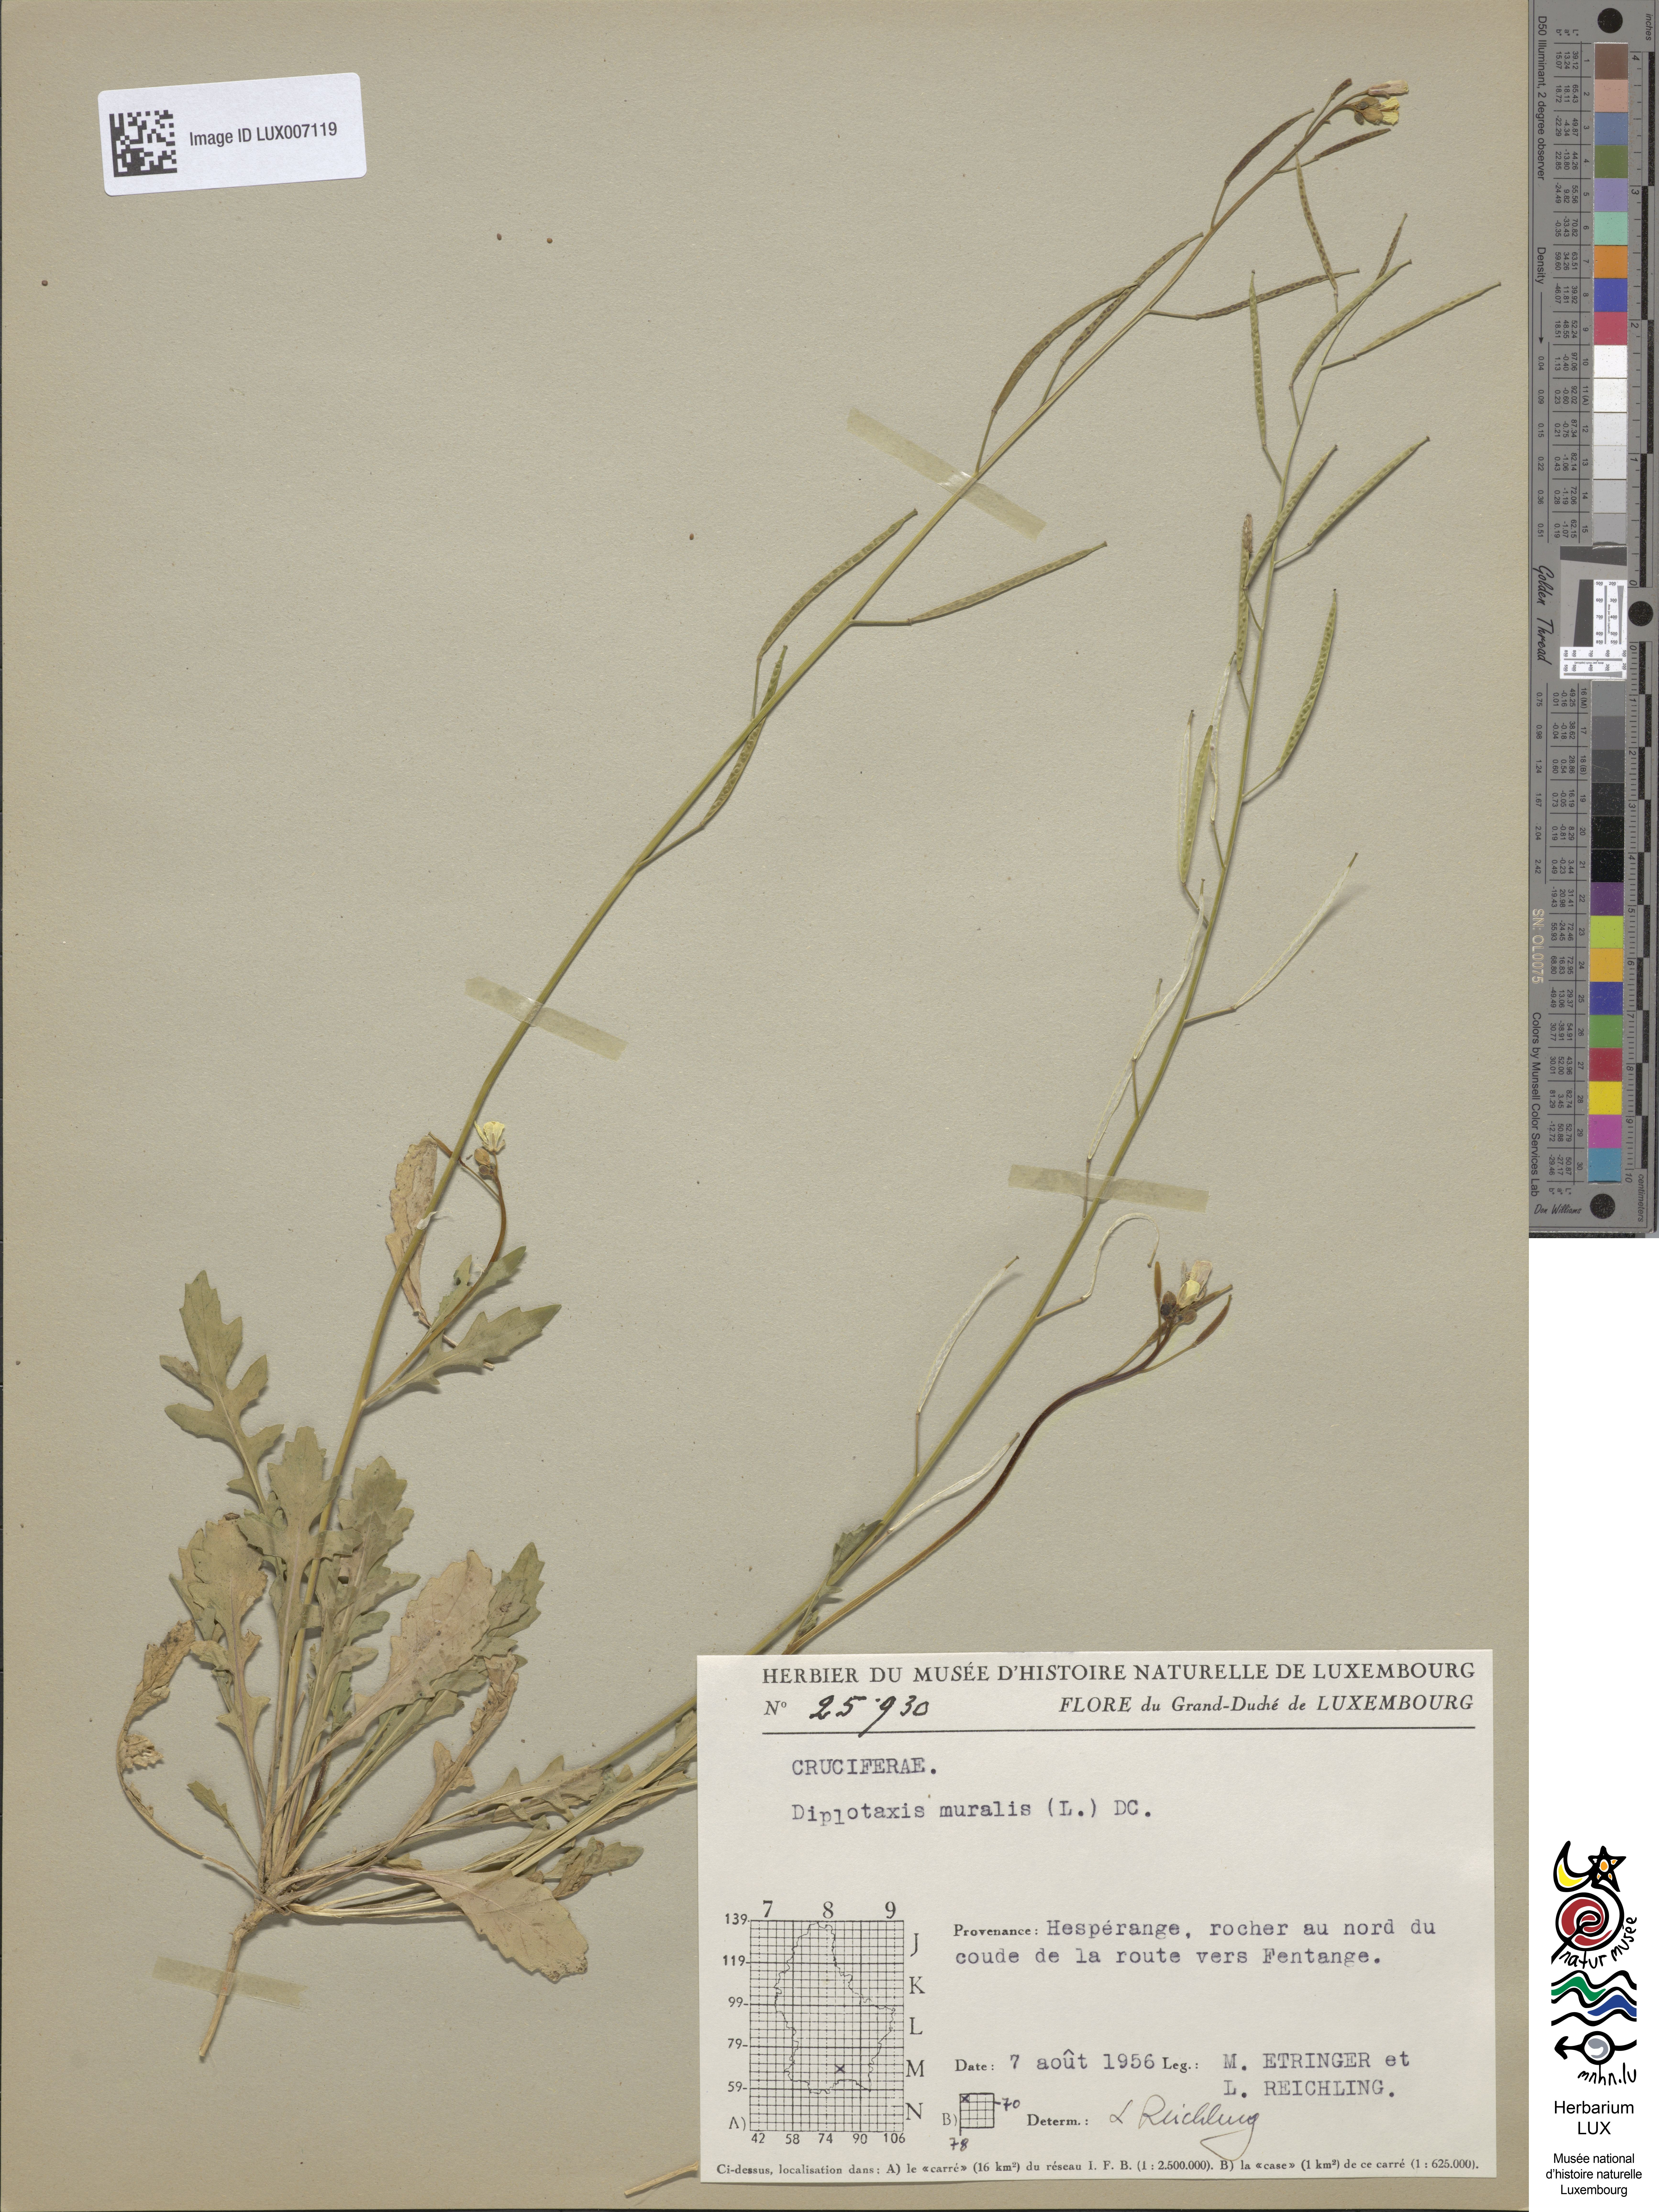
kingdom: Plantae
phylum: Tracheophyta
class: Magnoliopsida
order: Brassicales
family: Brassicaceae
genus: Diplotaxis
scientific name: Diplotaxis muralis
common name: Annual wall-rocket
